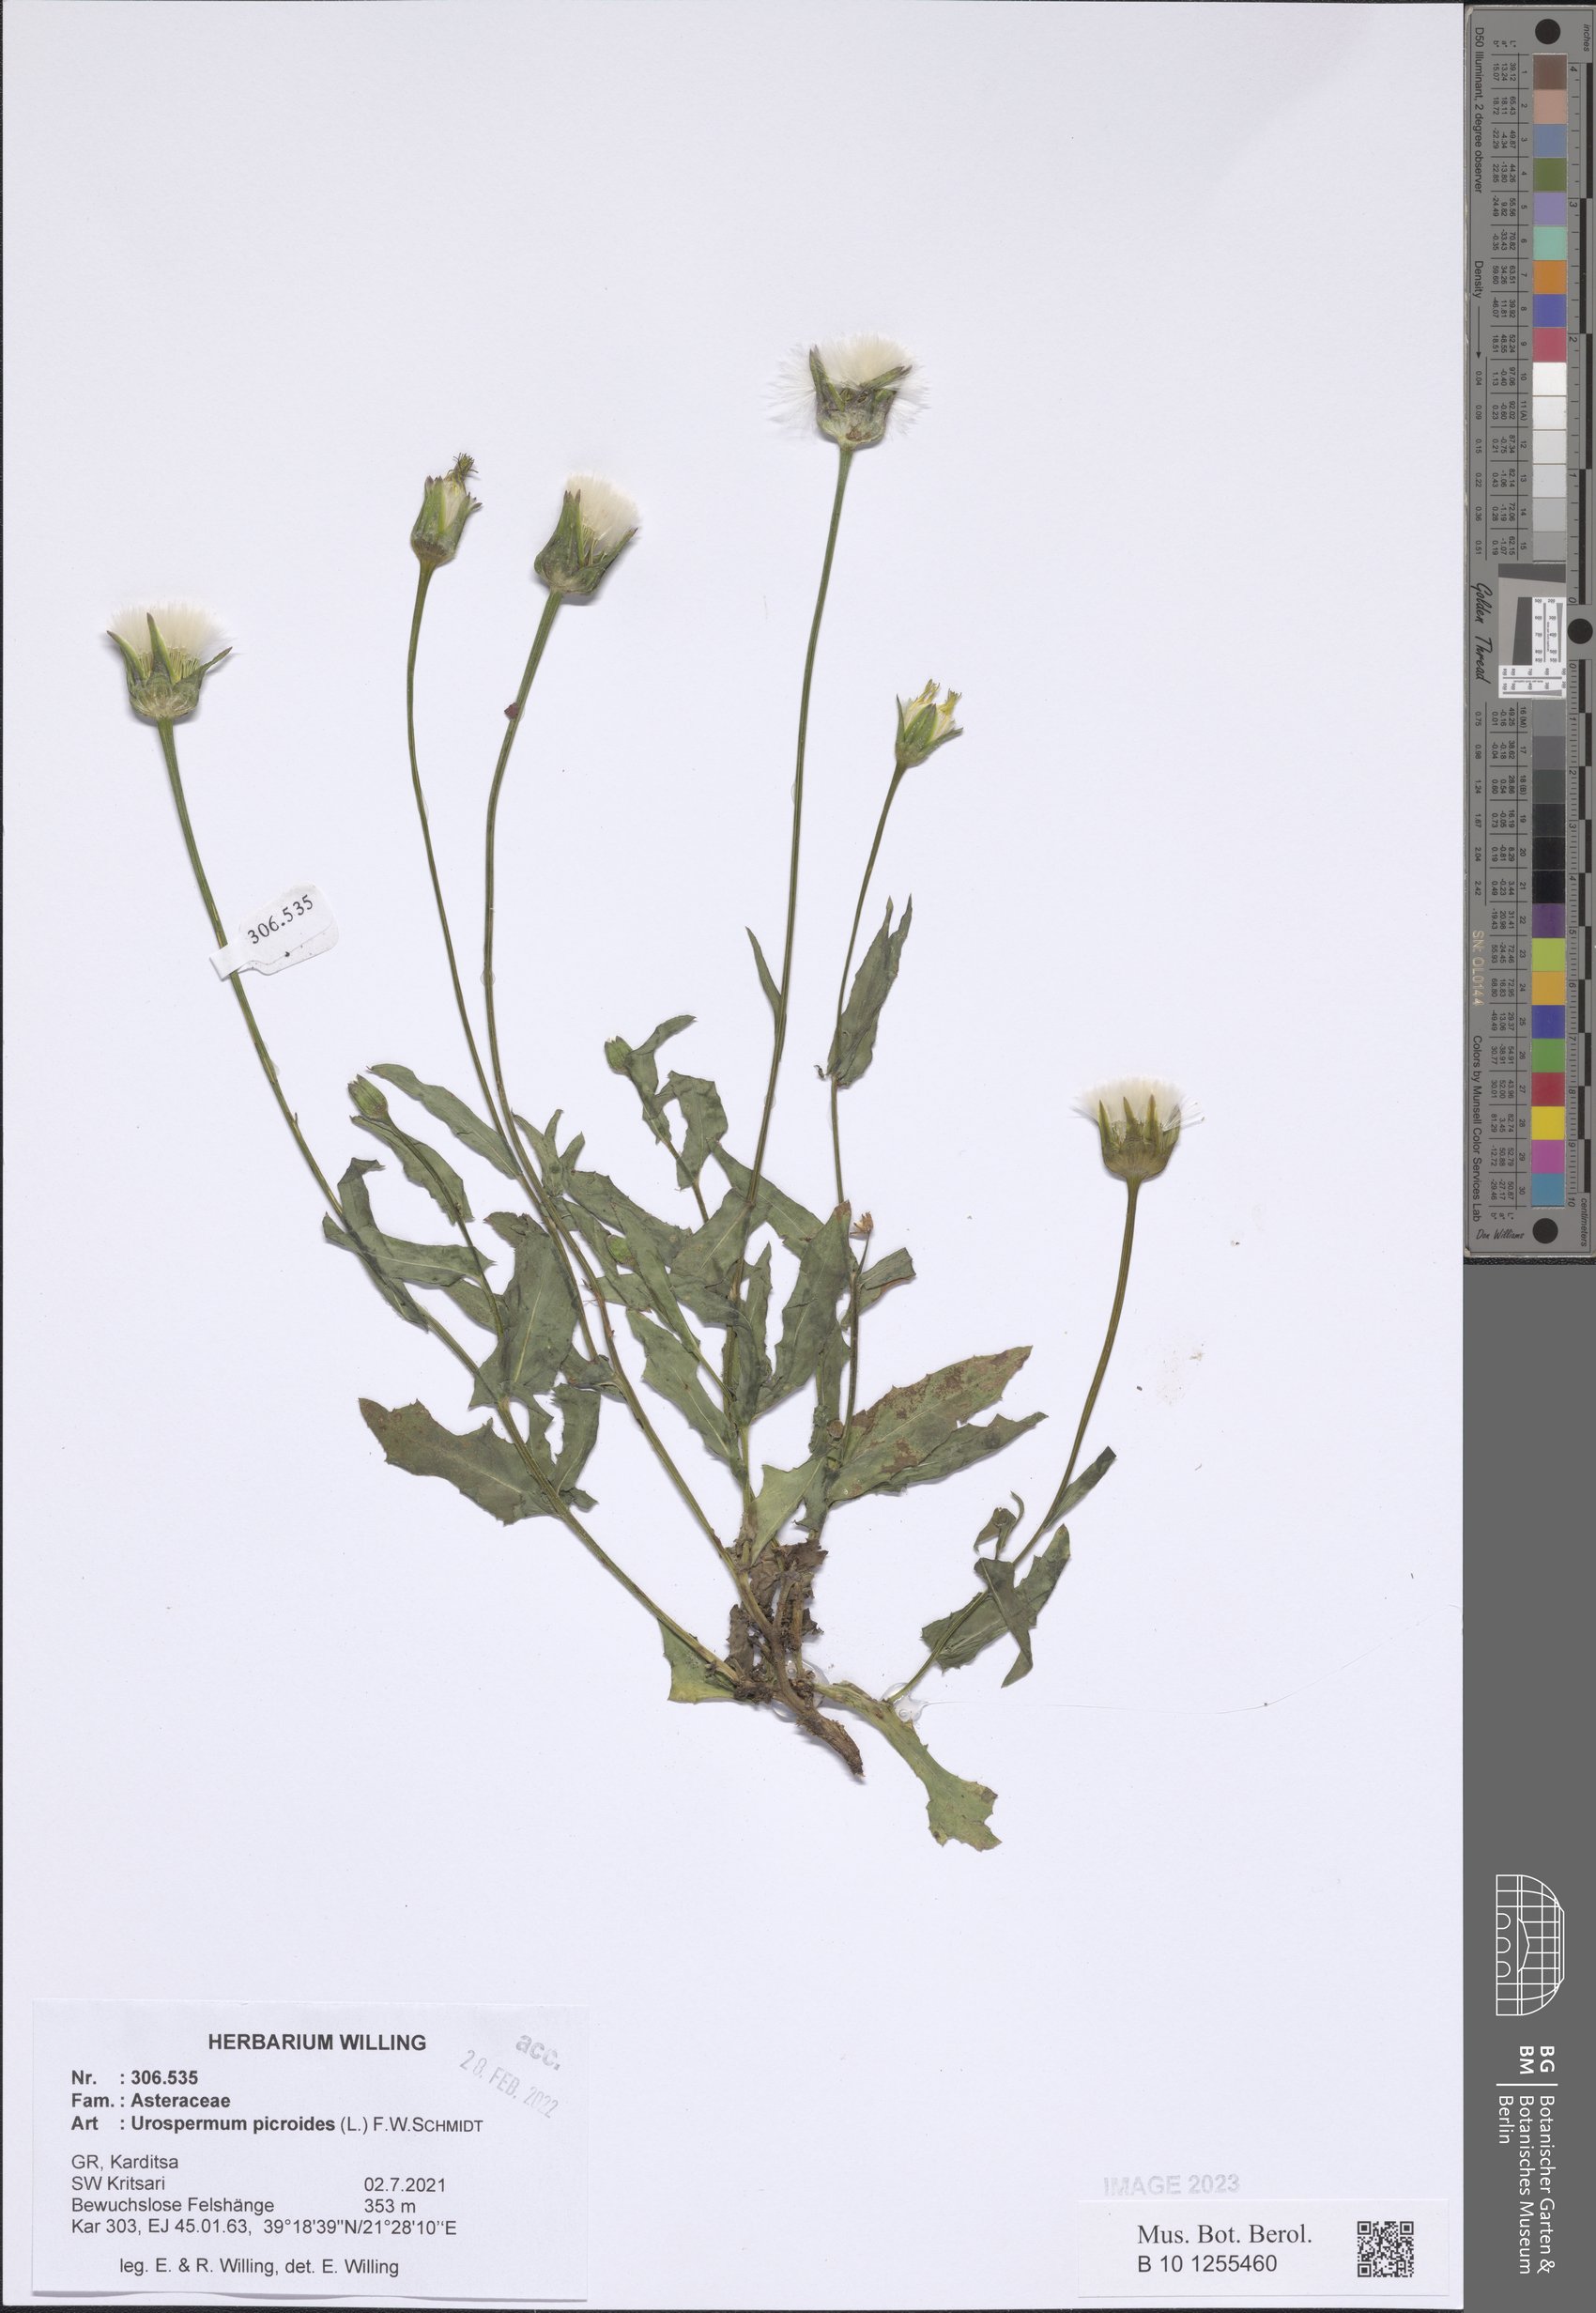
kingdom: Plantae
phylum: Tracheophyta
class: Magnoliopsida
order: Asterales
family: Asteraceae
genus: Urospermum
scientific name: Urospermum picroides
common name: False hawkbit
